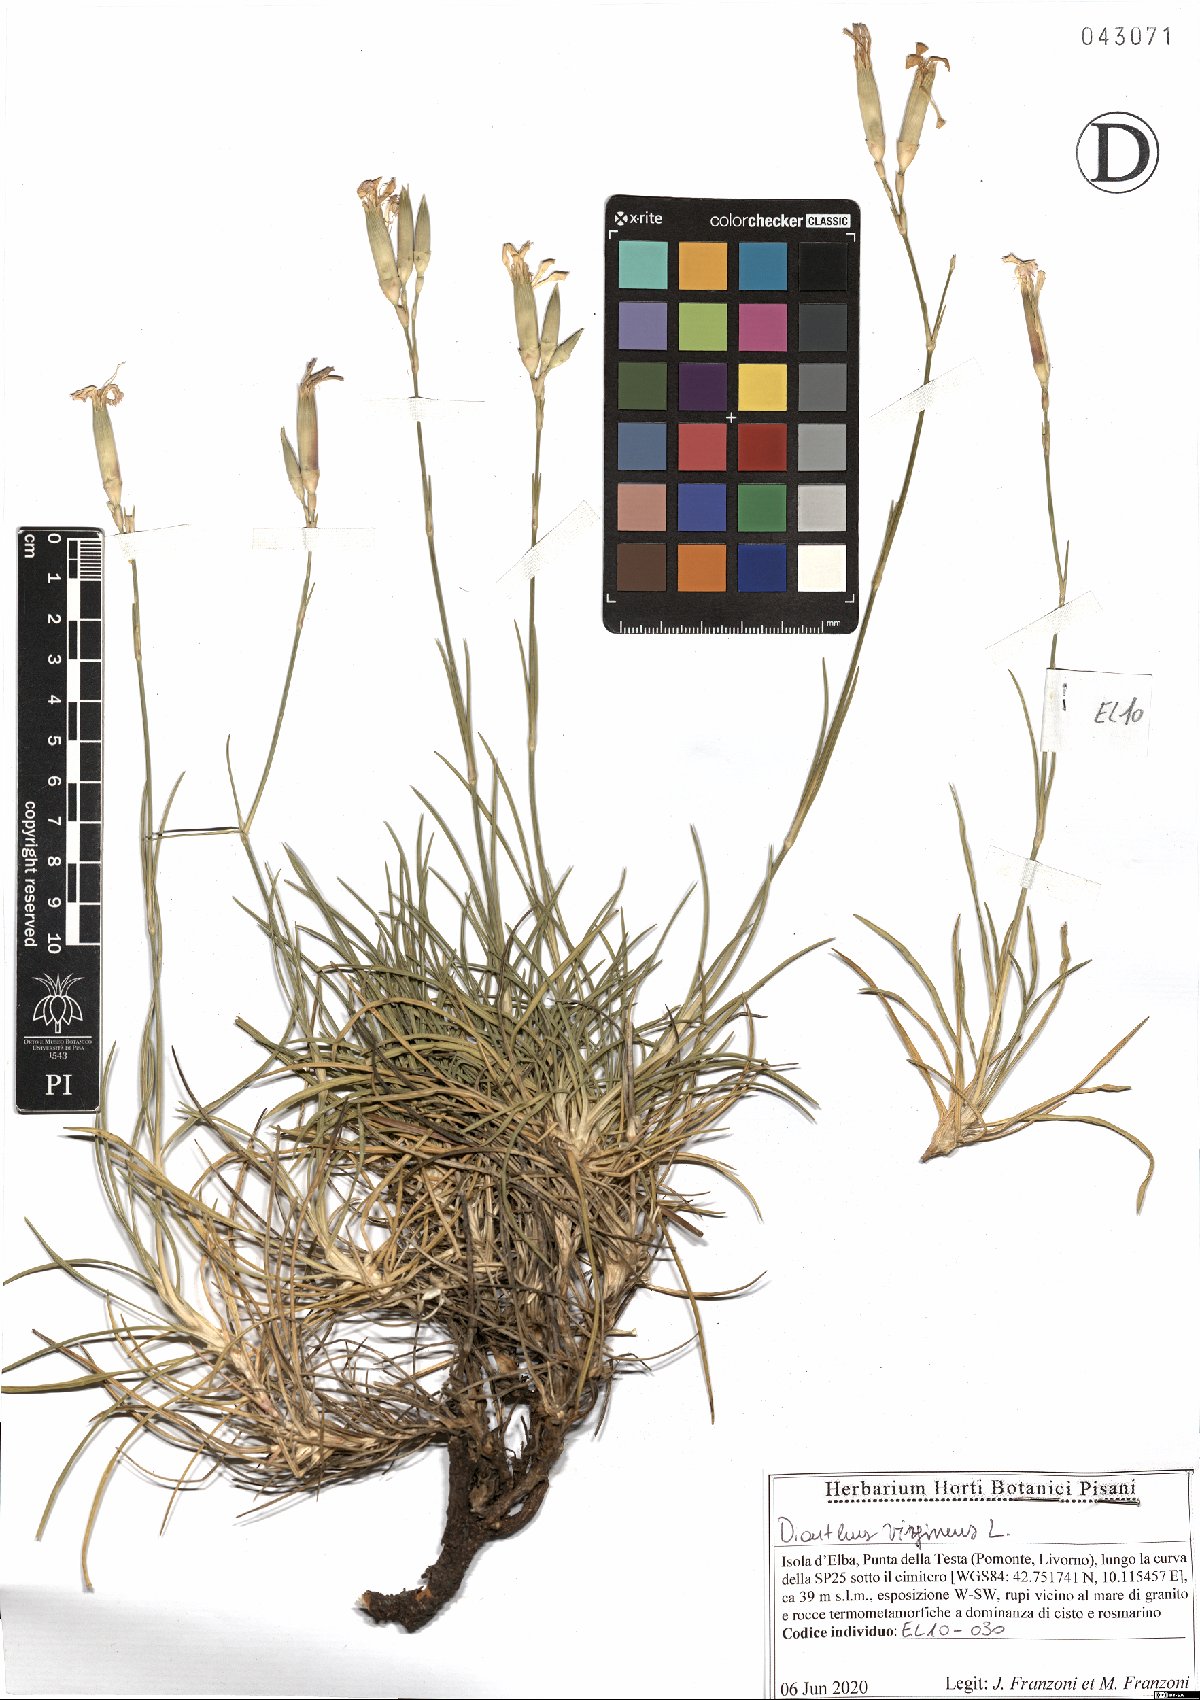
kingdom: Plantae
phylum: Tracheophyta
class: Magnoliopsida
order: Caryophyllales
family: Caryophyllaceae
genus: Dianthus
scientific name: Dianthus virgineus
